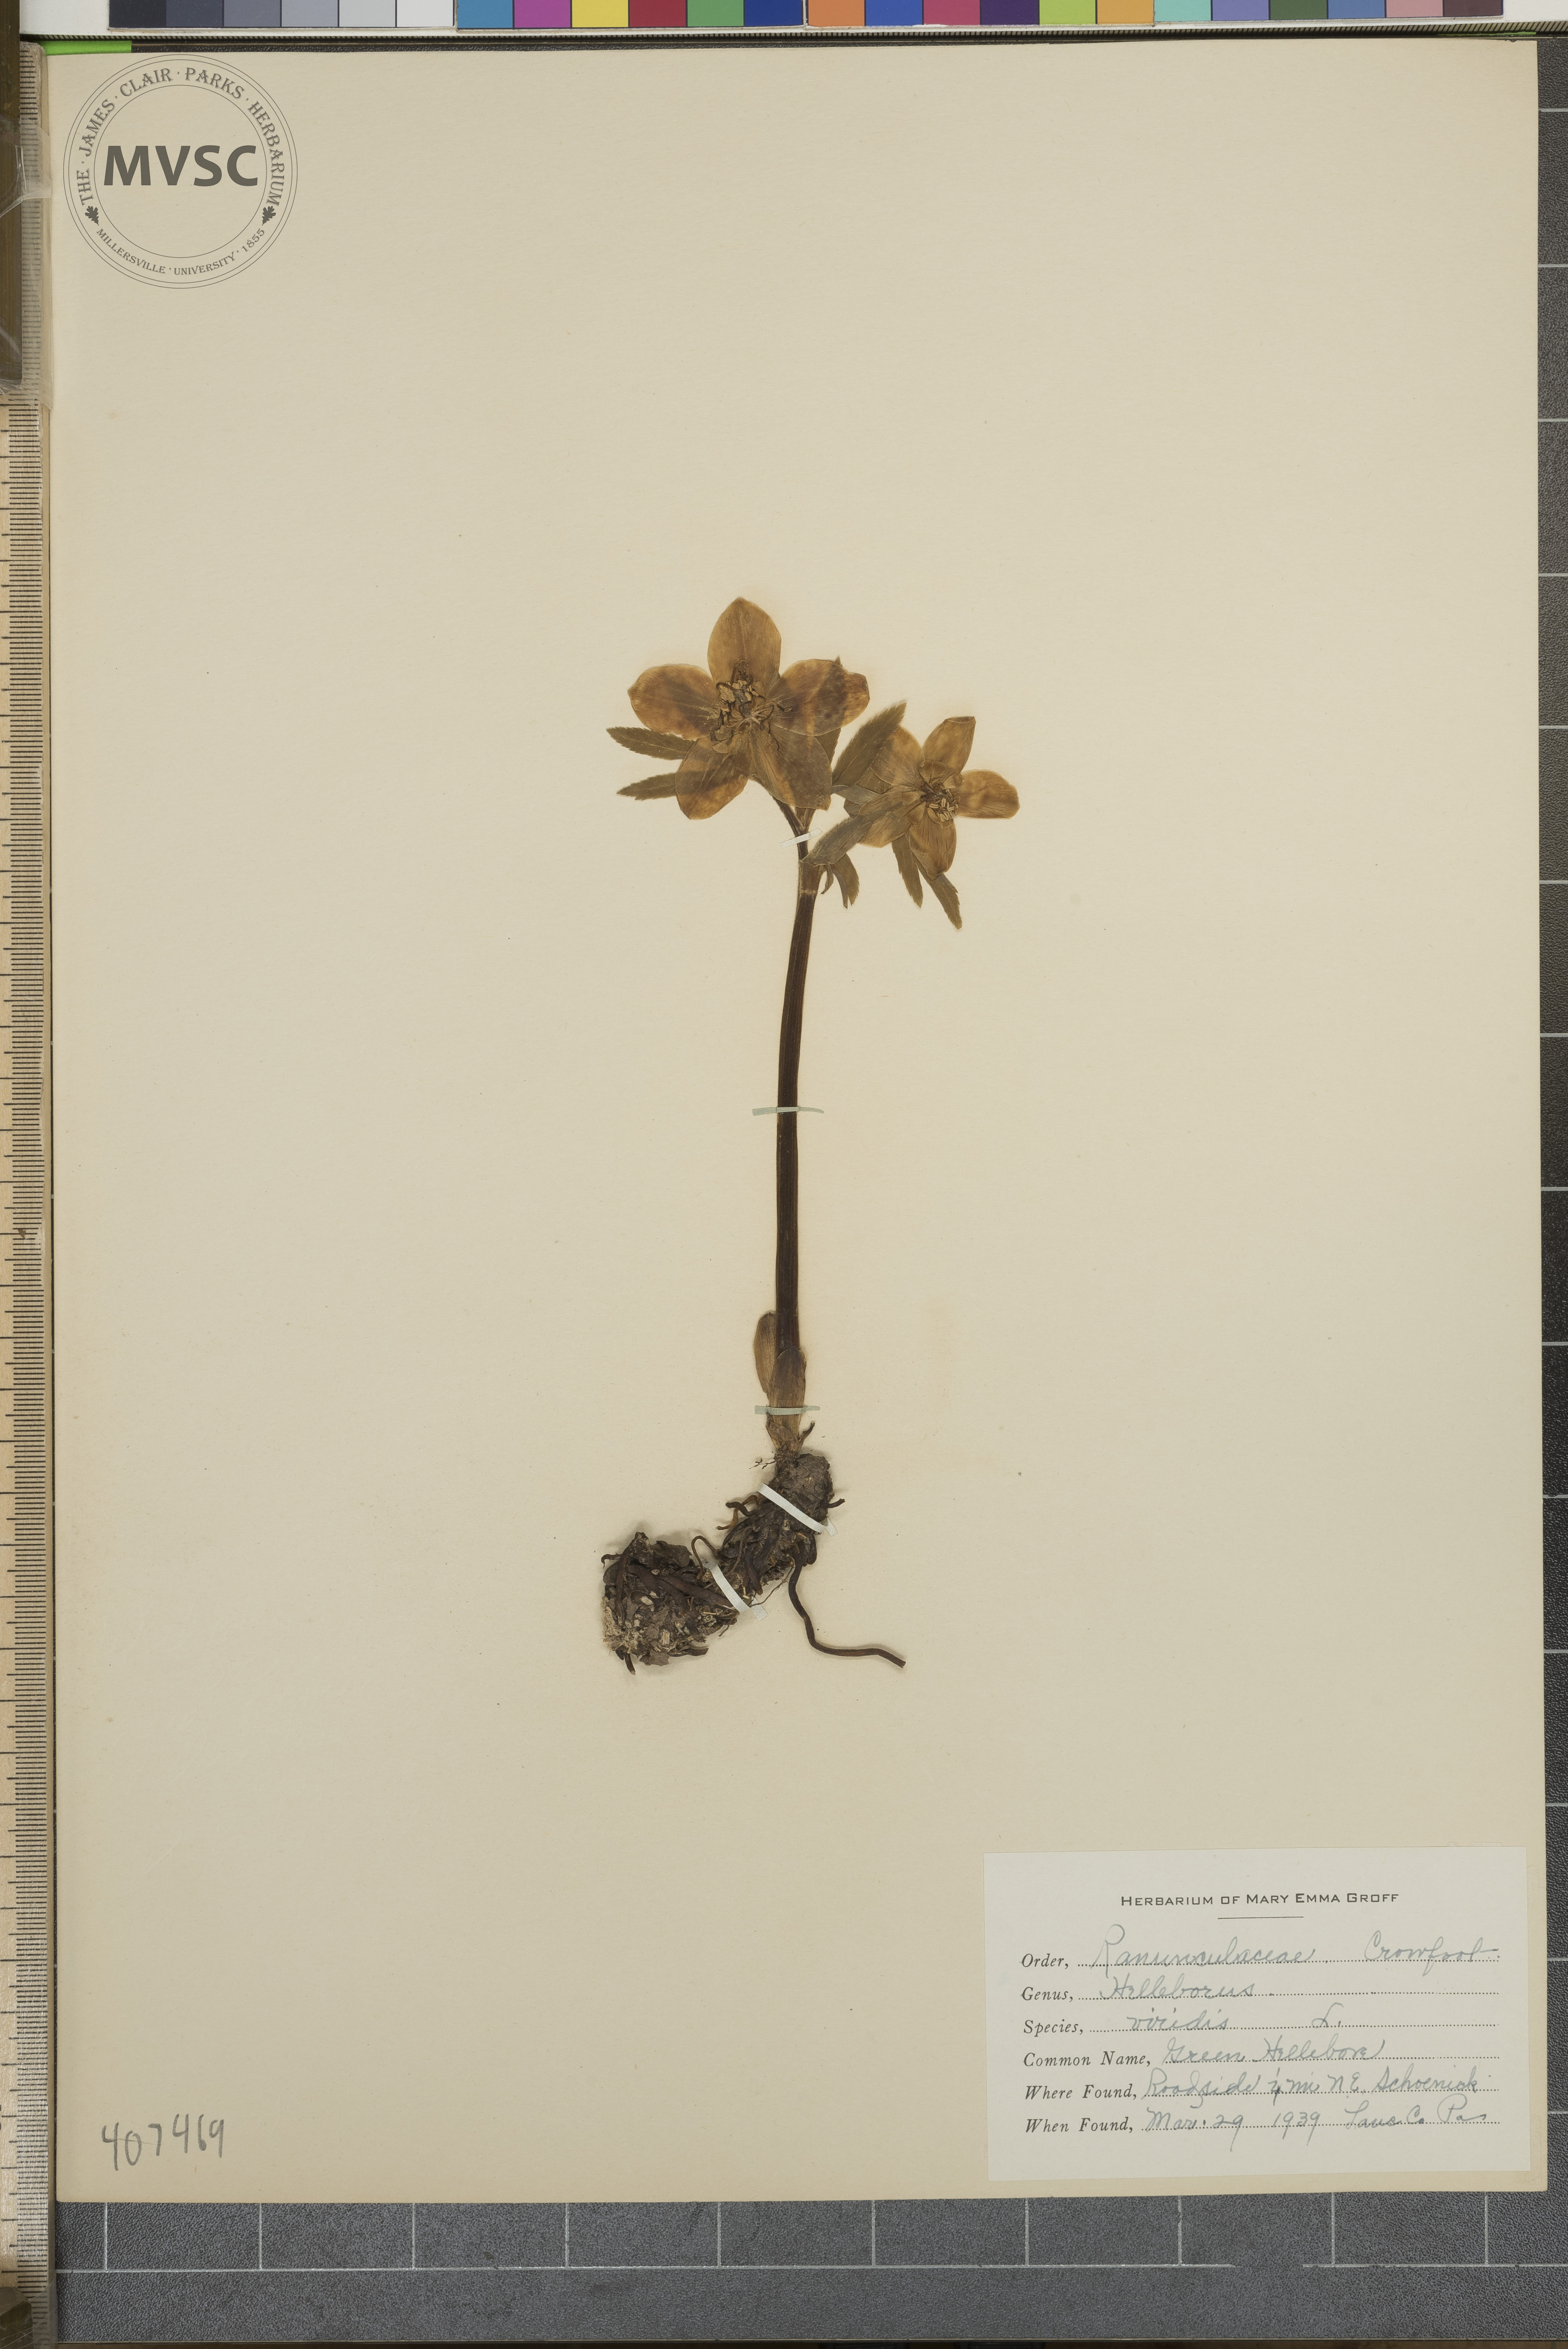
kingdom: Plantae
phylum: Tracheophyta
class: Magnoliopsida
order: Ranunculales
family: Ranunculaceae
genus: Helleborus
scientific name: Helleborus viridis
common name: Green Hellebore
